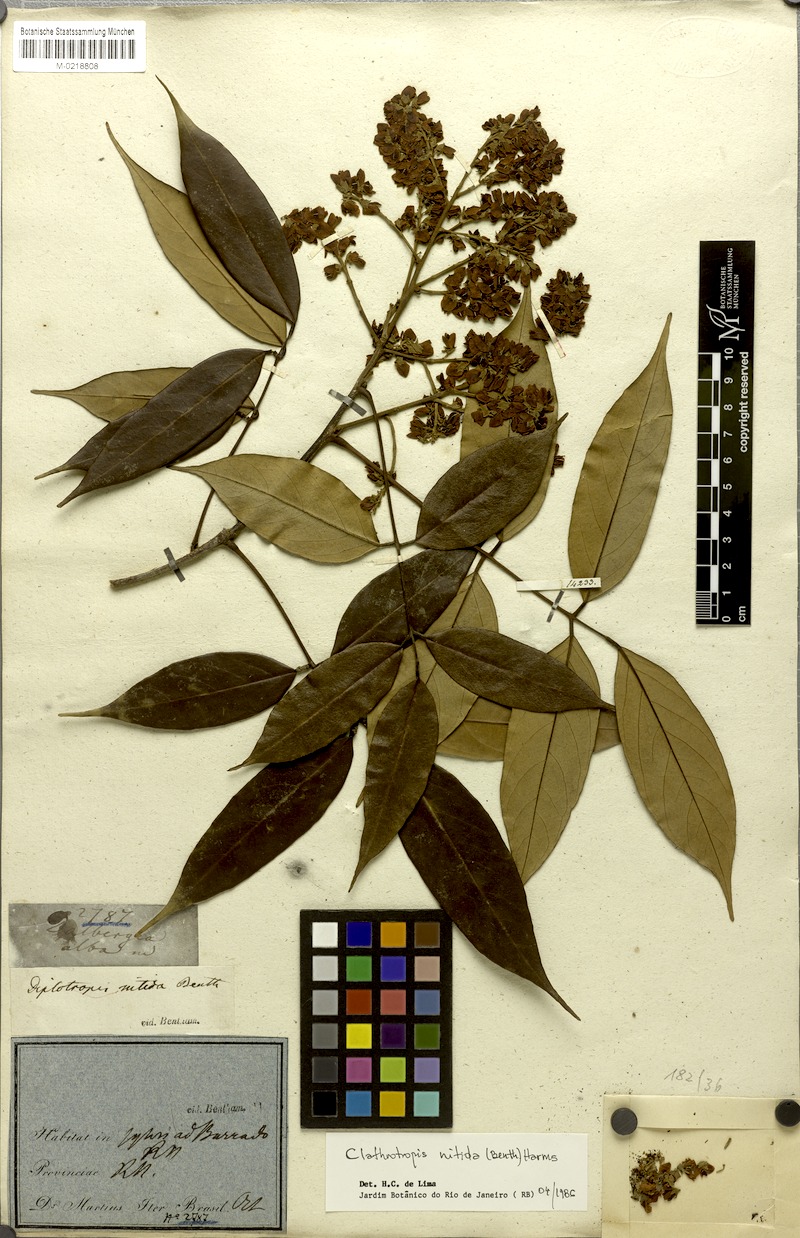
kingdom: Plantae
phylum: Tracheophyta
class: Magnoliopsida
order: Fabales
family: Fabaceae
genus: Clathrotropis
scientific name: Clathrotropis nitida
